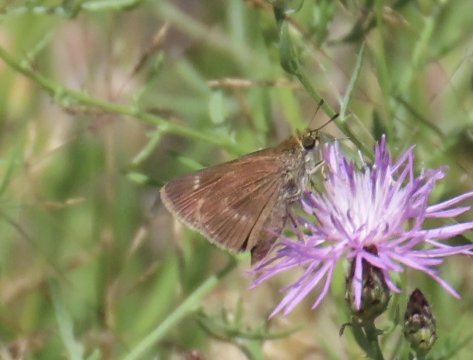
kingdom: Animalia
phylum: Arthropoda
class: Insecta
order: Lepidoptera
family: Hesperiidae
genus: Polites
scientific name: Polites egeremet
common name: Northern Broken-Dash
